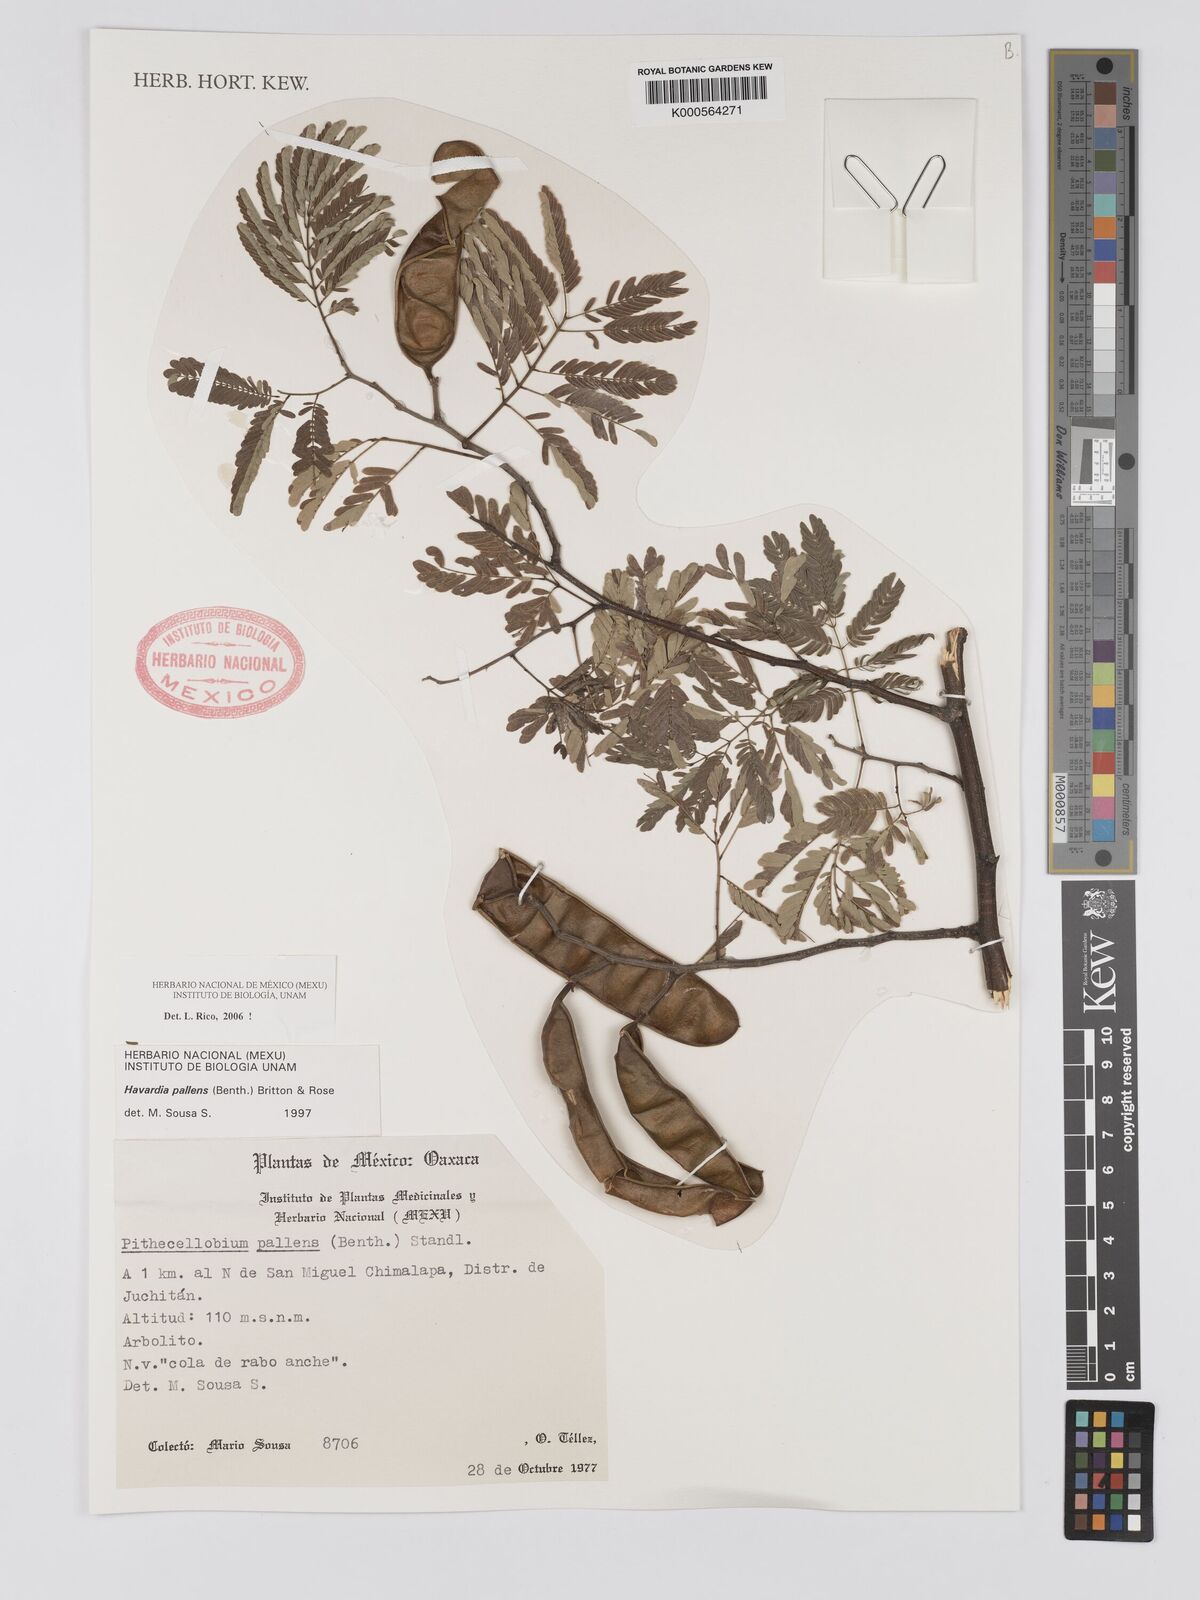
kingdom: Plantae
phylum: Tracheophyta
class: Magnoliopsida
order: Fabales
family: Fabaceae
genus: Havardia
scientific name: Havardia pallens
